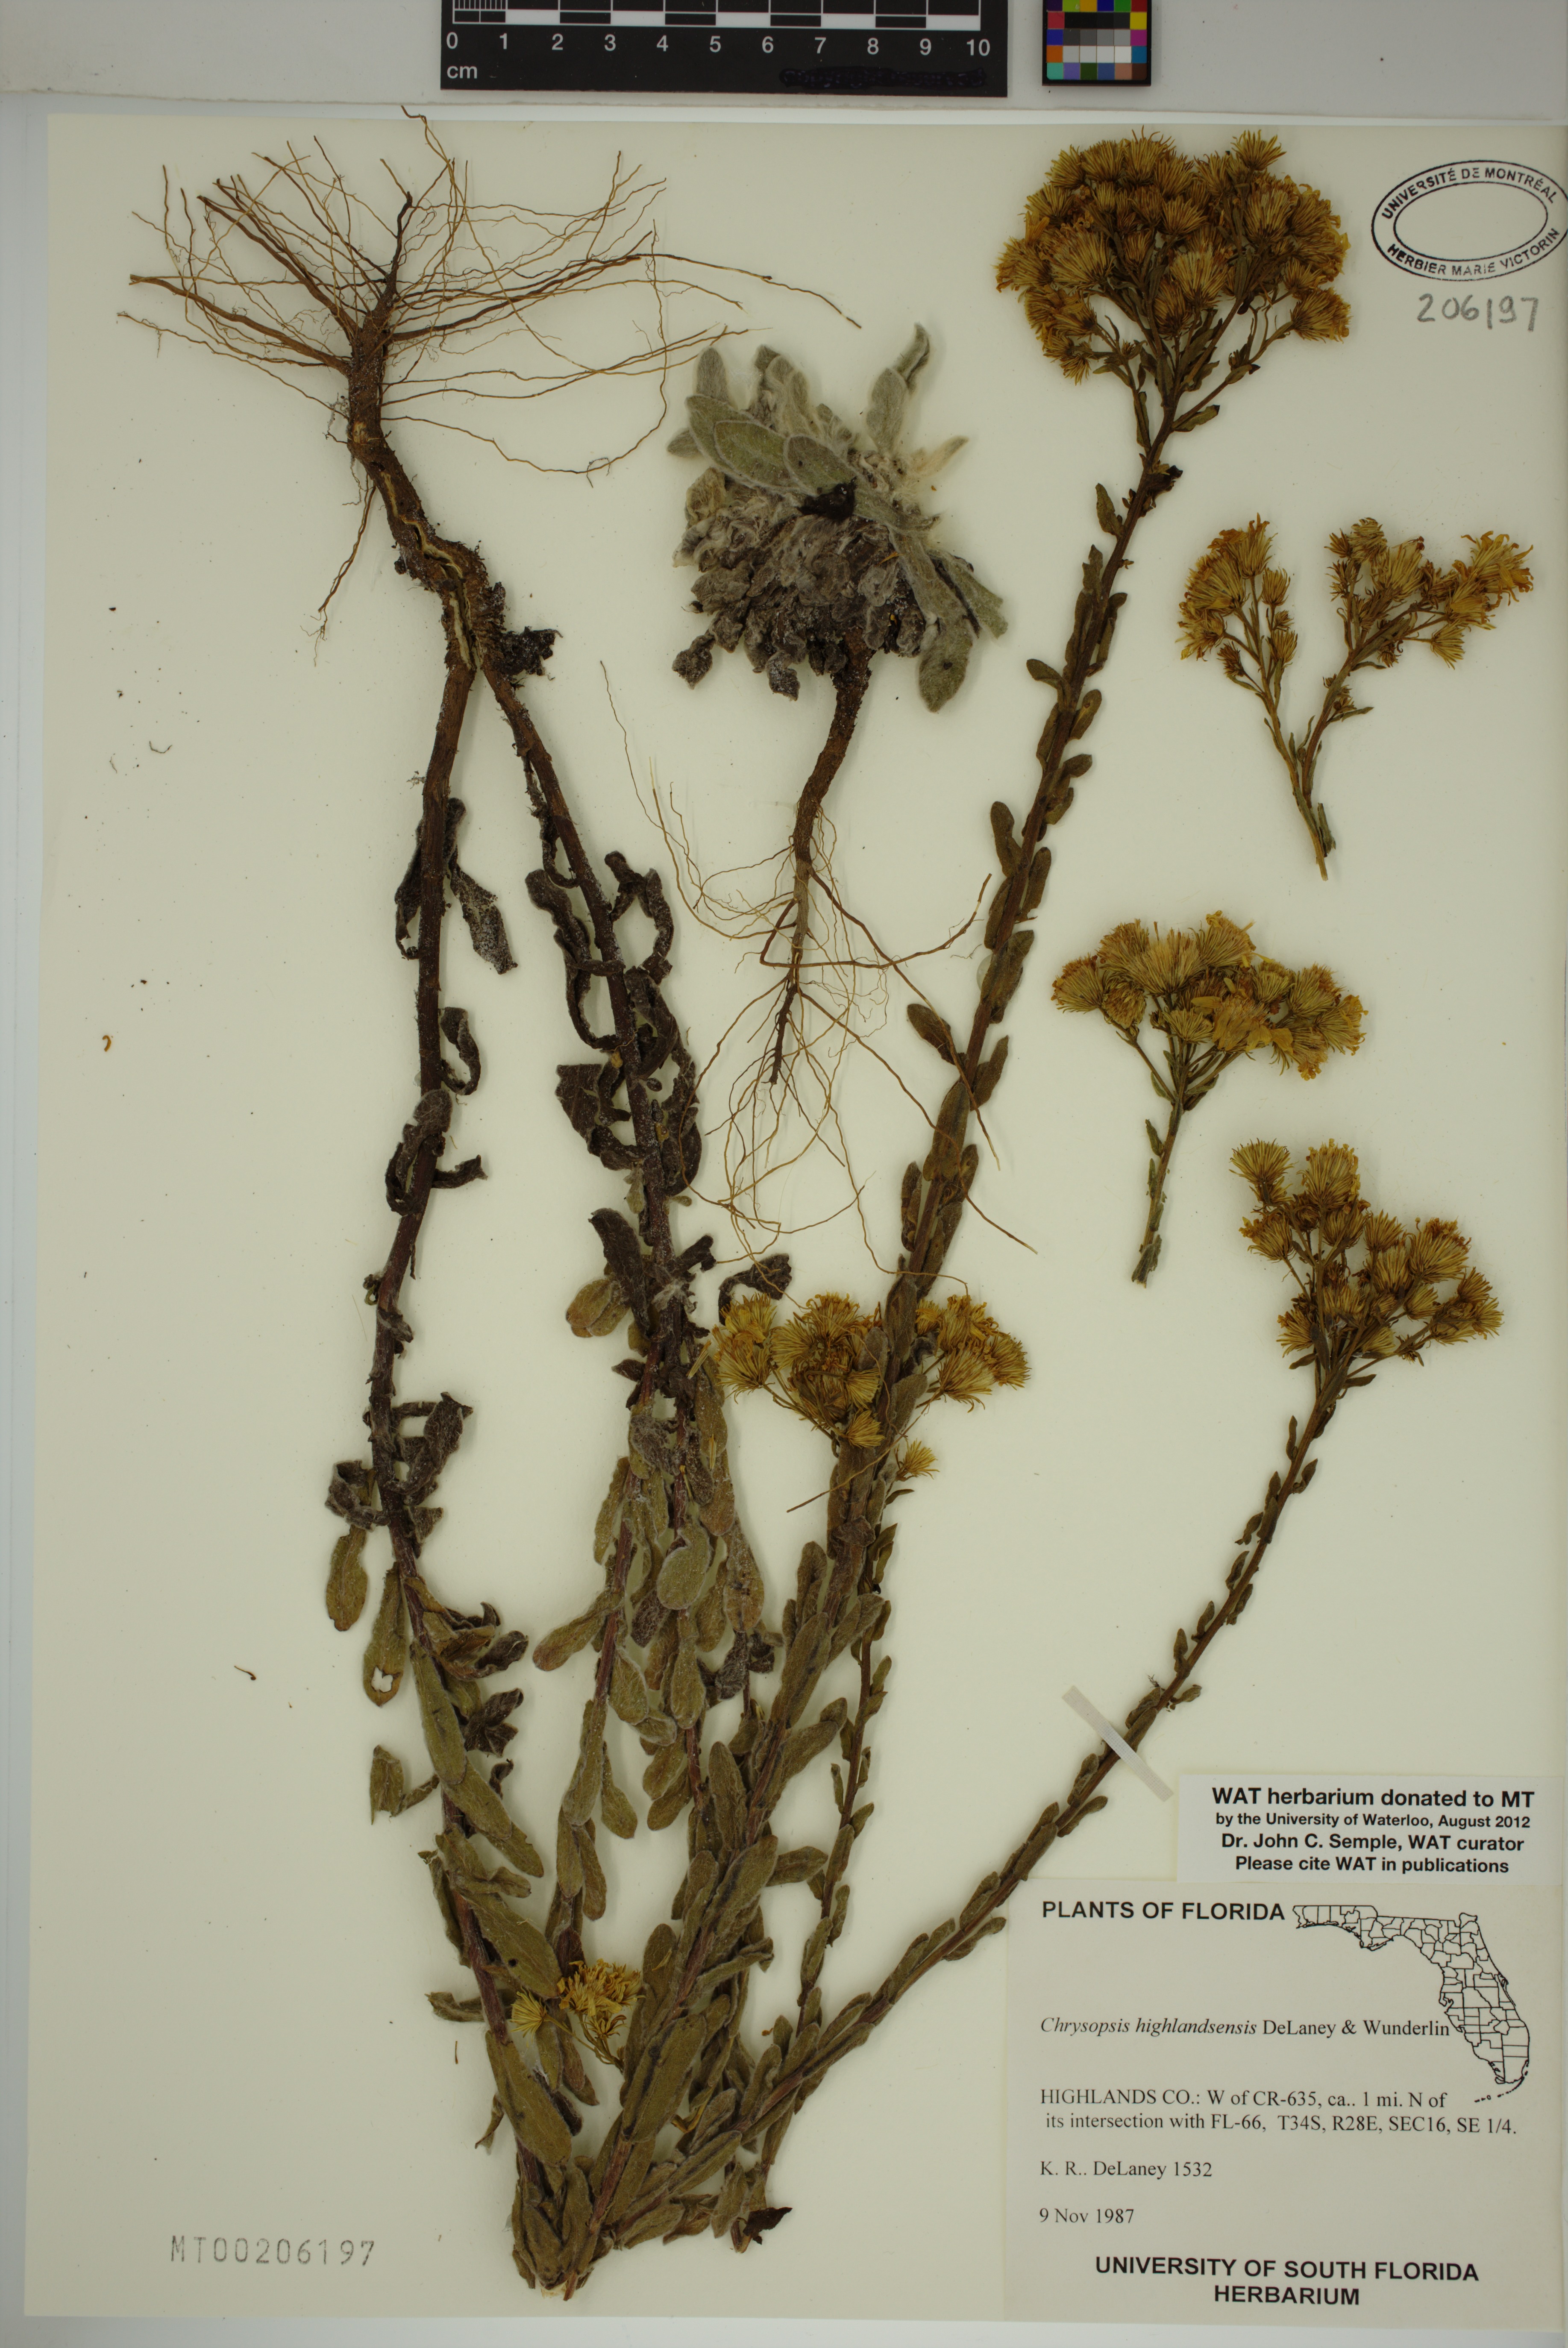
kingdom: Plantae
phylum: Tracheophyta
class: Magnoliopsida
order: Asterales
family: Asteraceae
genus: Chrysopsis
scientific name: Chrysopsis floridana
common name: Florida golden-aster
